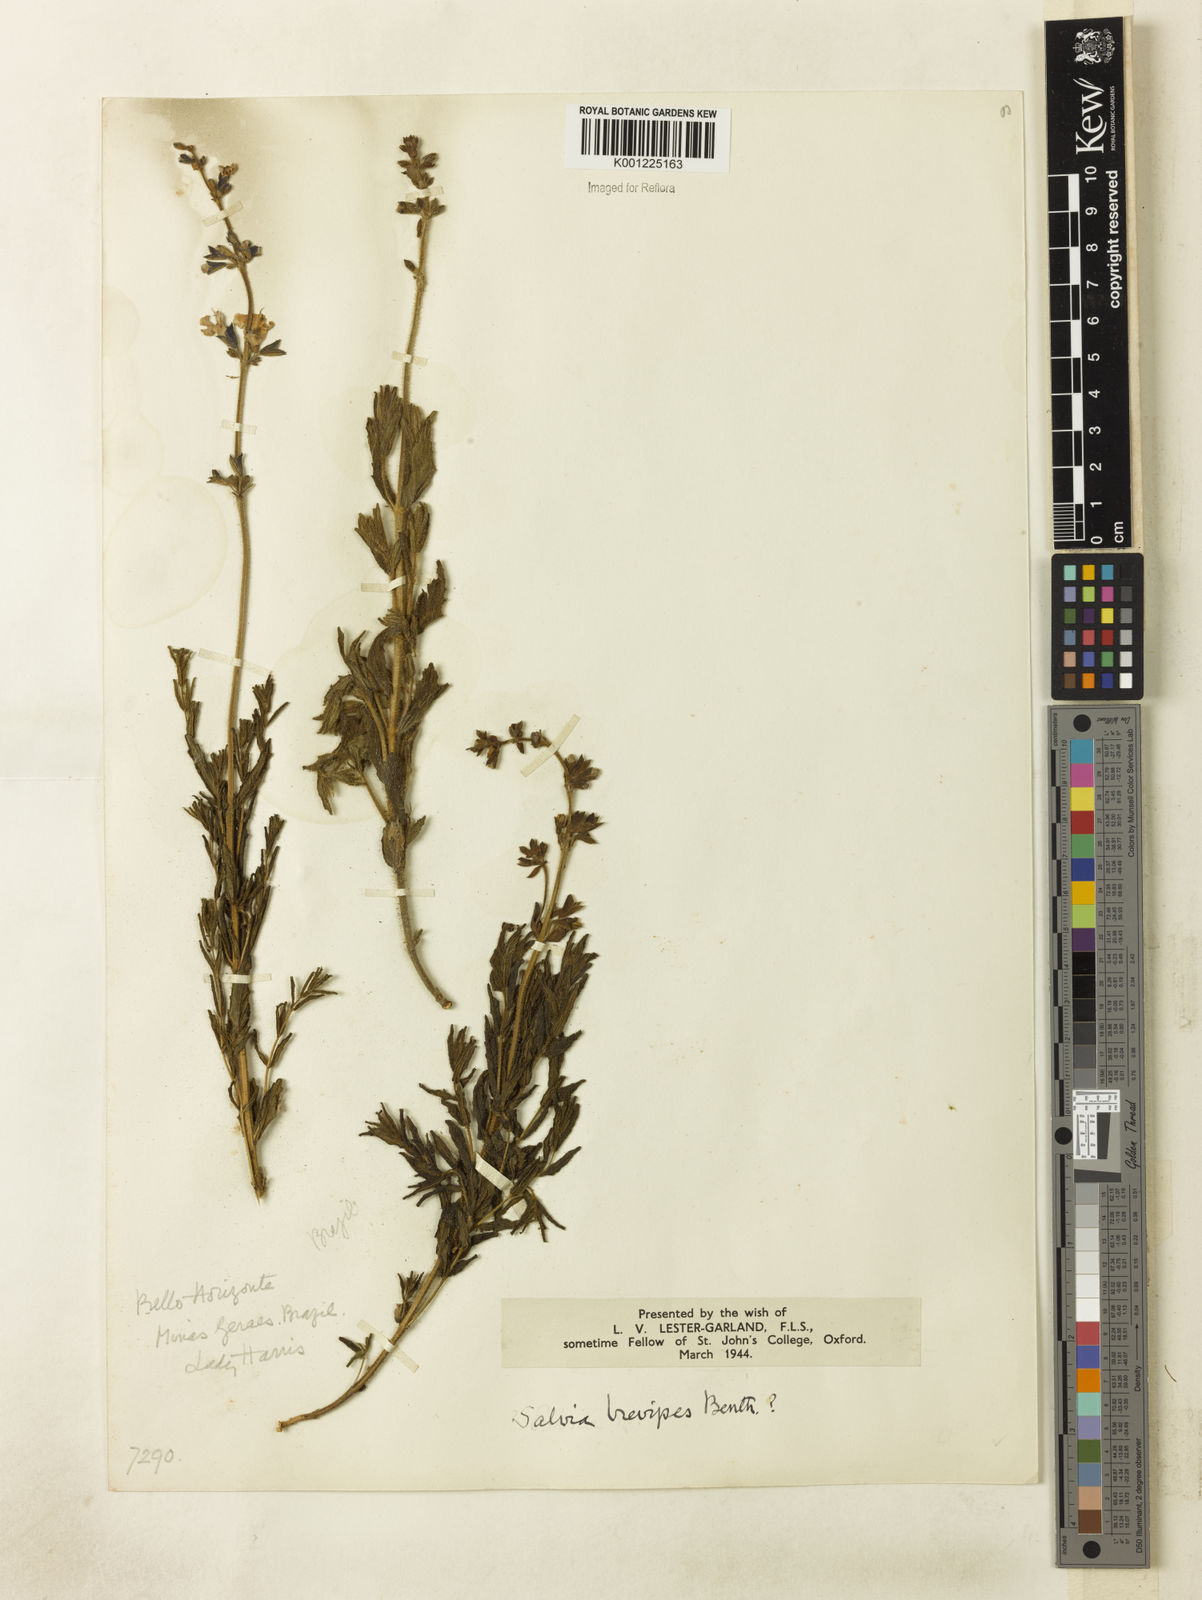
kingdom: Plantae
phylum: Tracheophyta
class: Magnoliopsida
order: Lamiales
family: Lamiaceae
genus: Salvia
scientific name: Salvia brevipes
